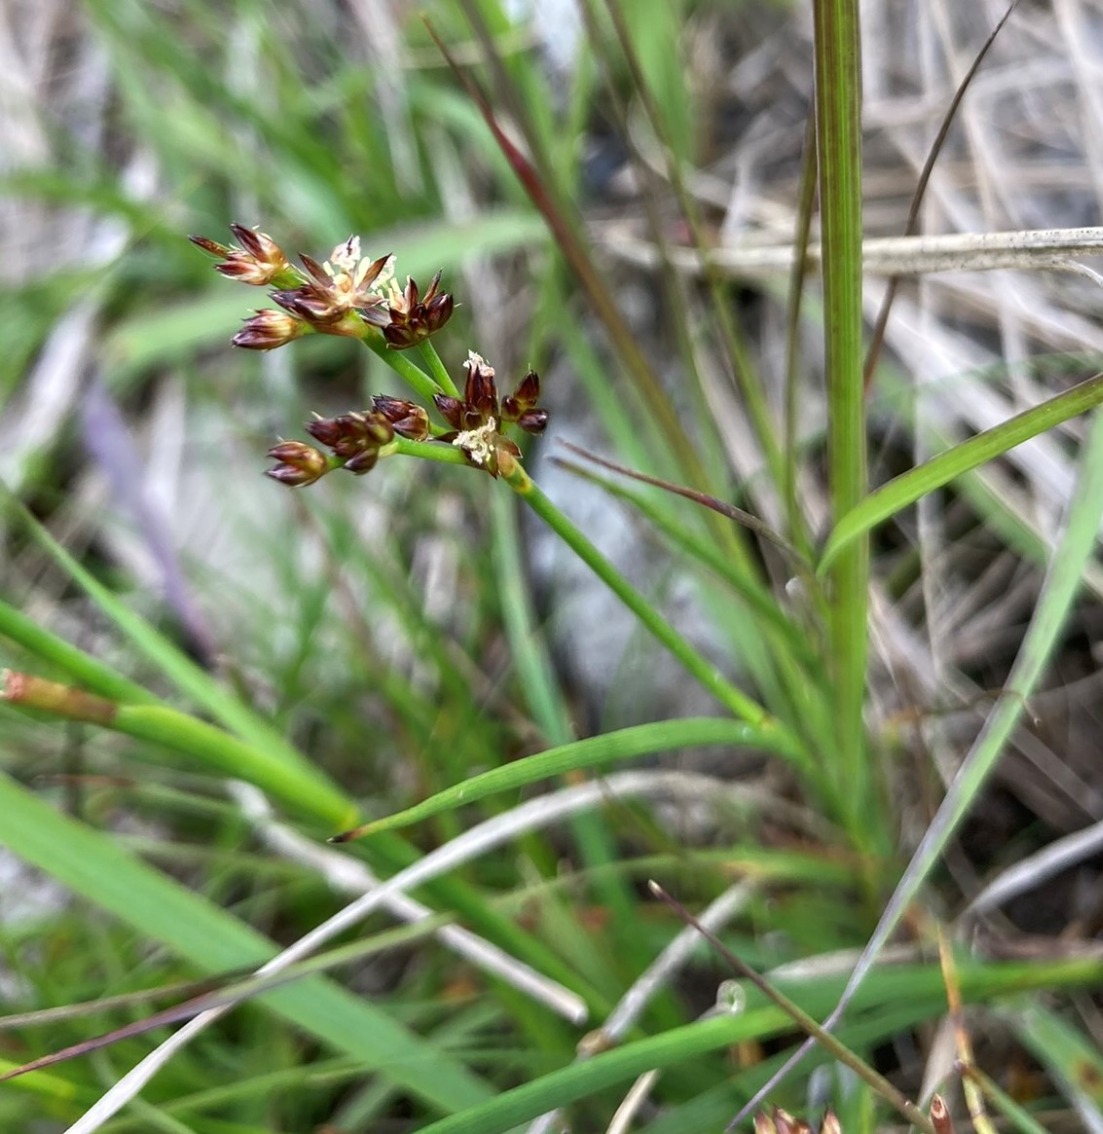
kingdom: Plantae
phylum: Tracheophyta
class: Liliopsida
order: Poales
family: Juncaceae
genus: Juncus
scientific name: Juncus articulatus
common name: Glanskapslet siv
